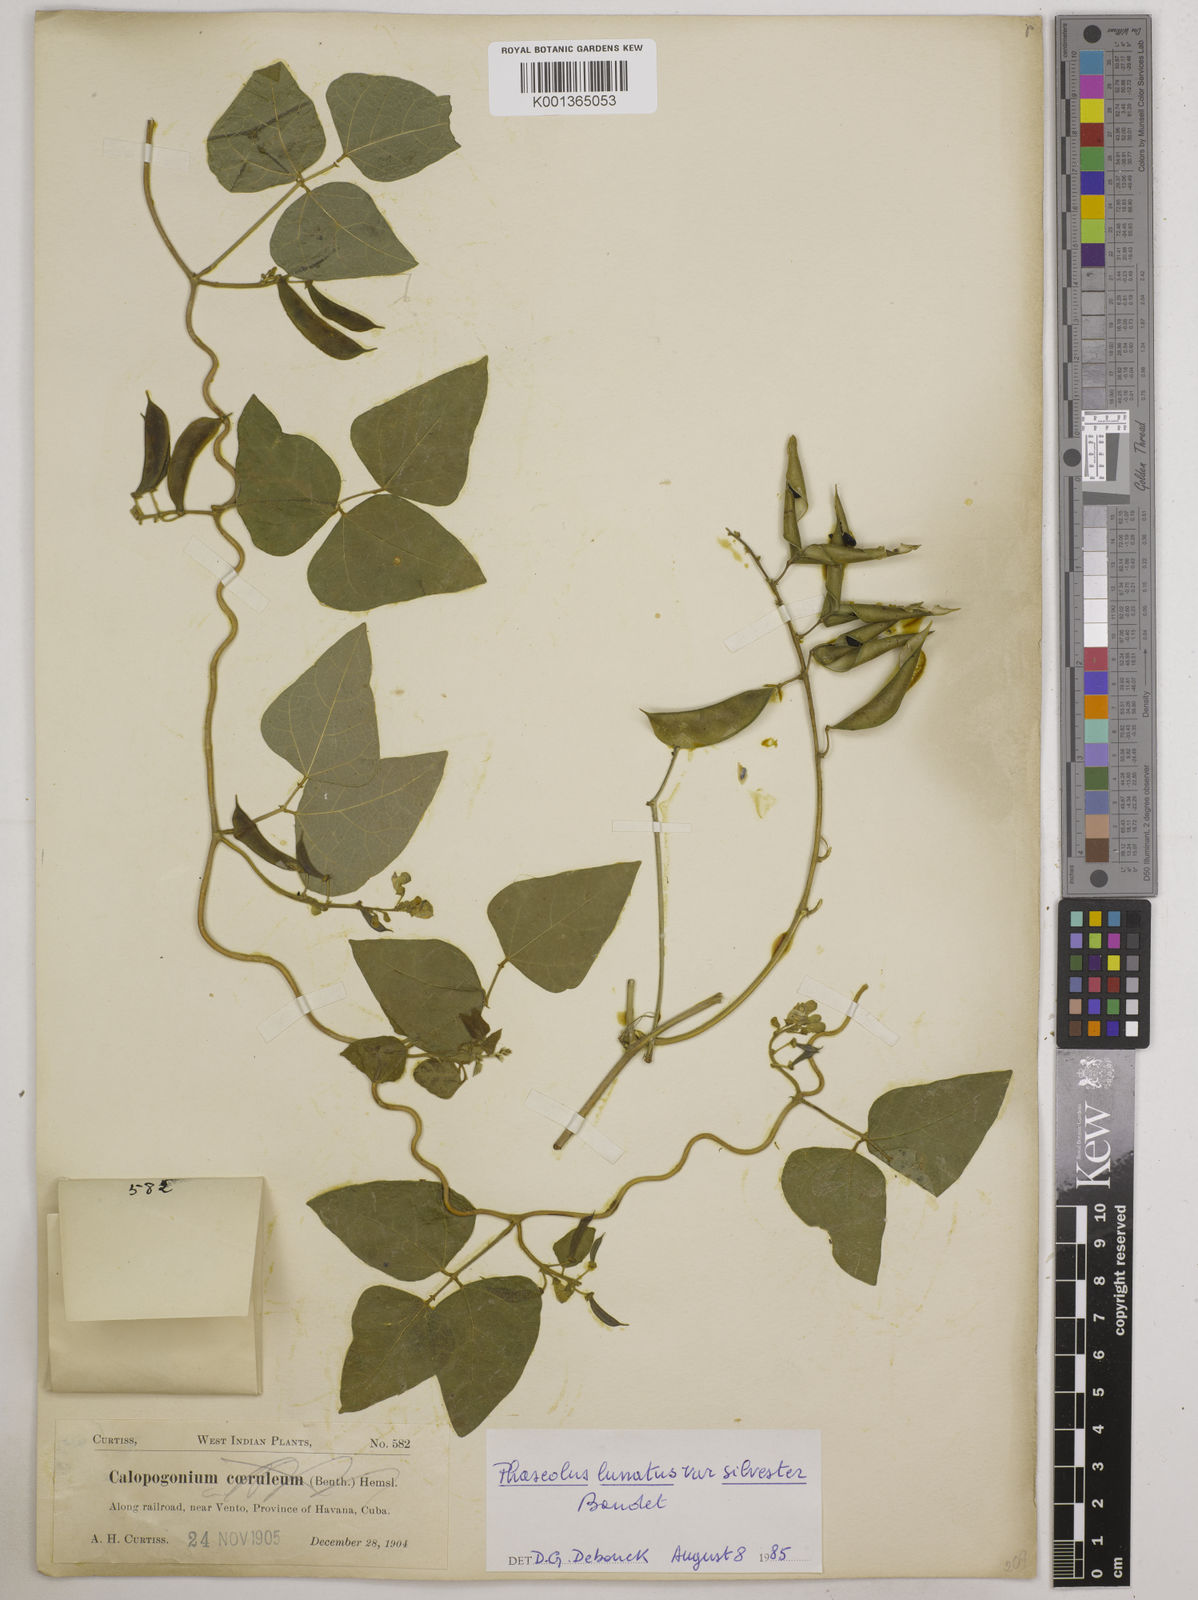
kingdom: Plantae
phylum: Tracheophyta
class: Magnoliopsida
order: Fabales
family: Fabaceae
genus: Phaseolus
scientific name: Phaseolus lunatus
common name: Sieva bean
